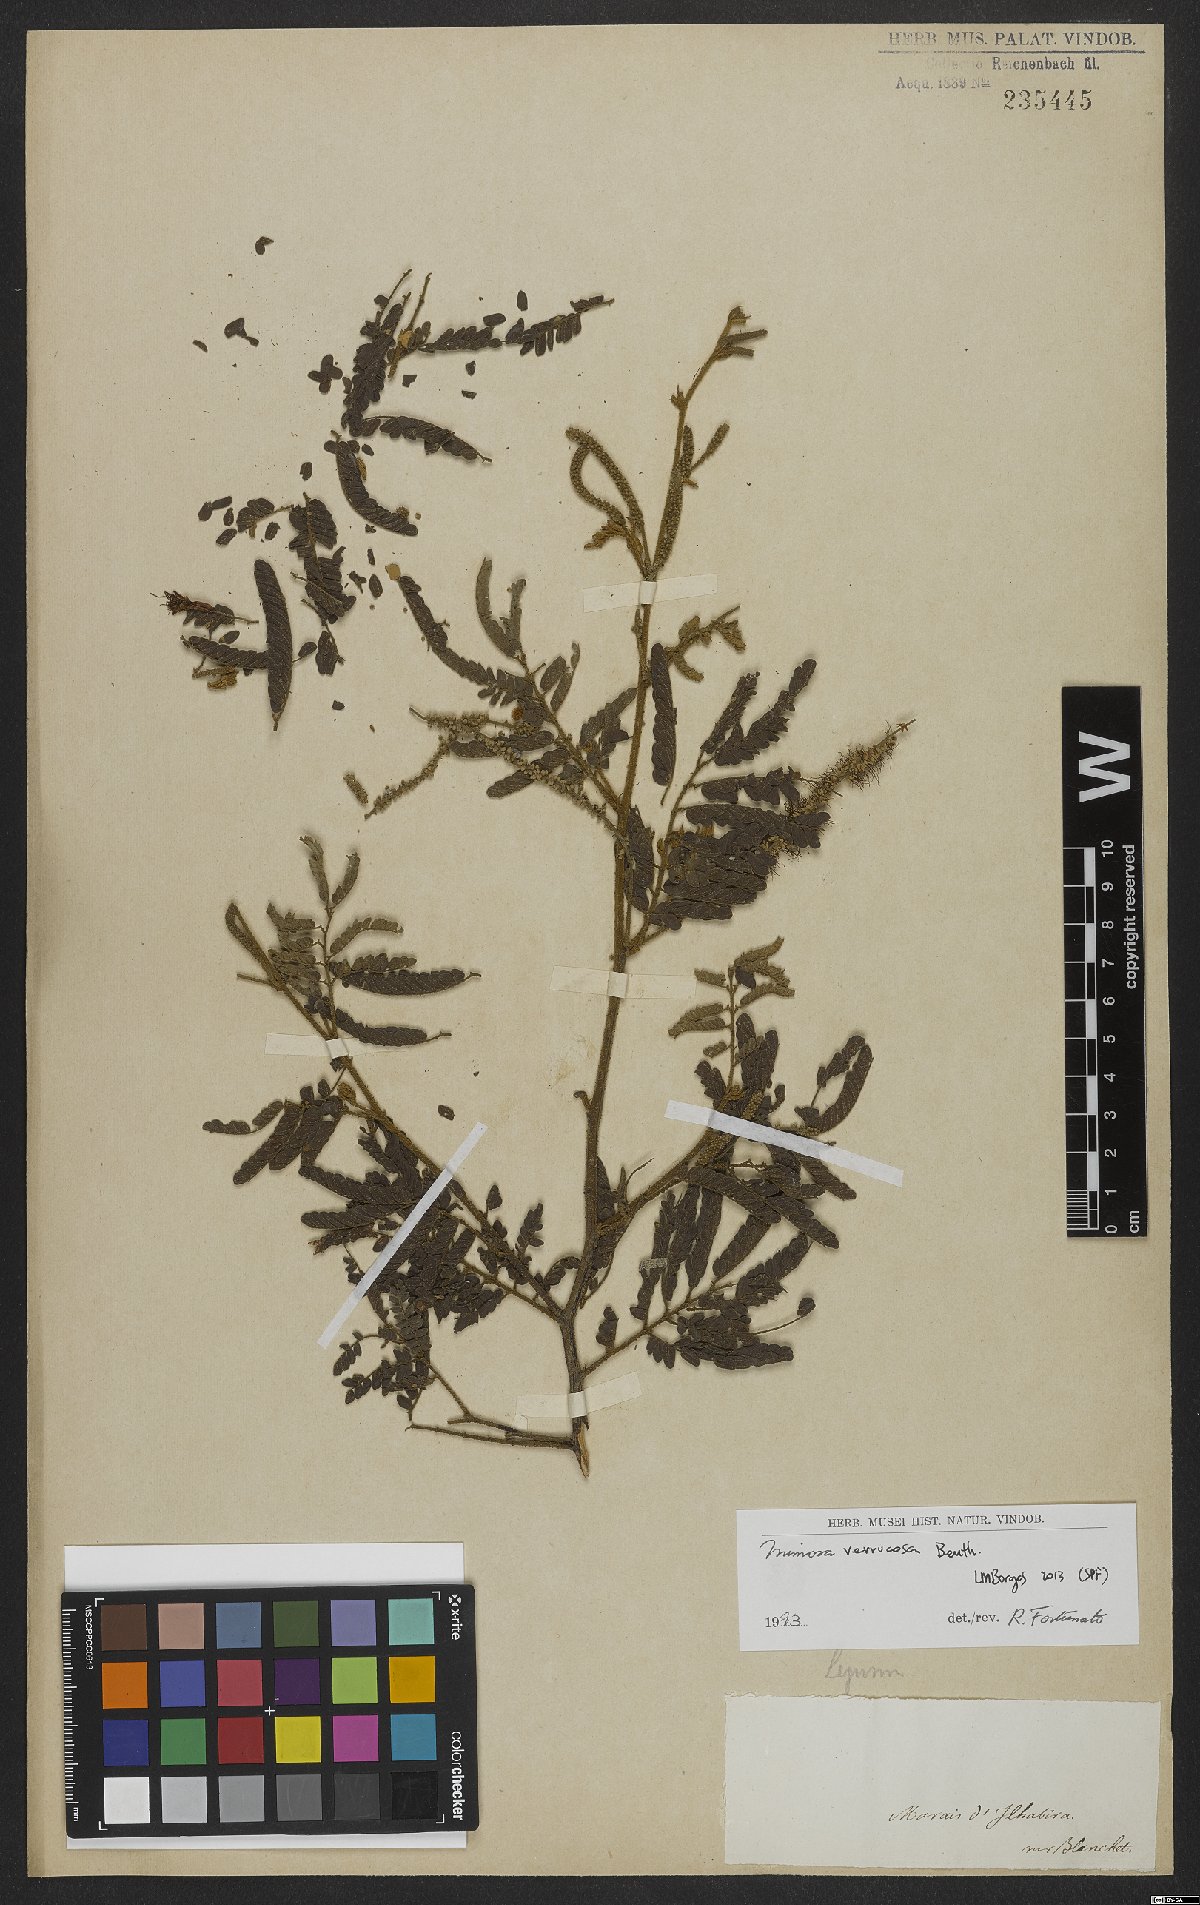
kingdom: Plantae
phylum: Tracheophyta
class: Magnoliopsida
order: Fabales
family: Fabaceae
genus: Mimosa
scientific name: Mimosa verrucosa
